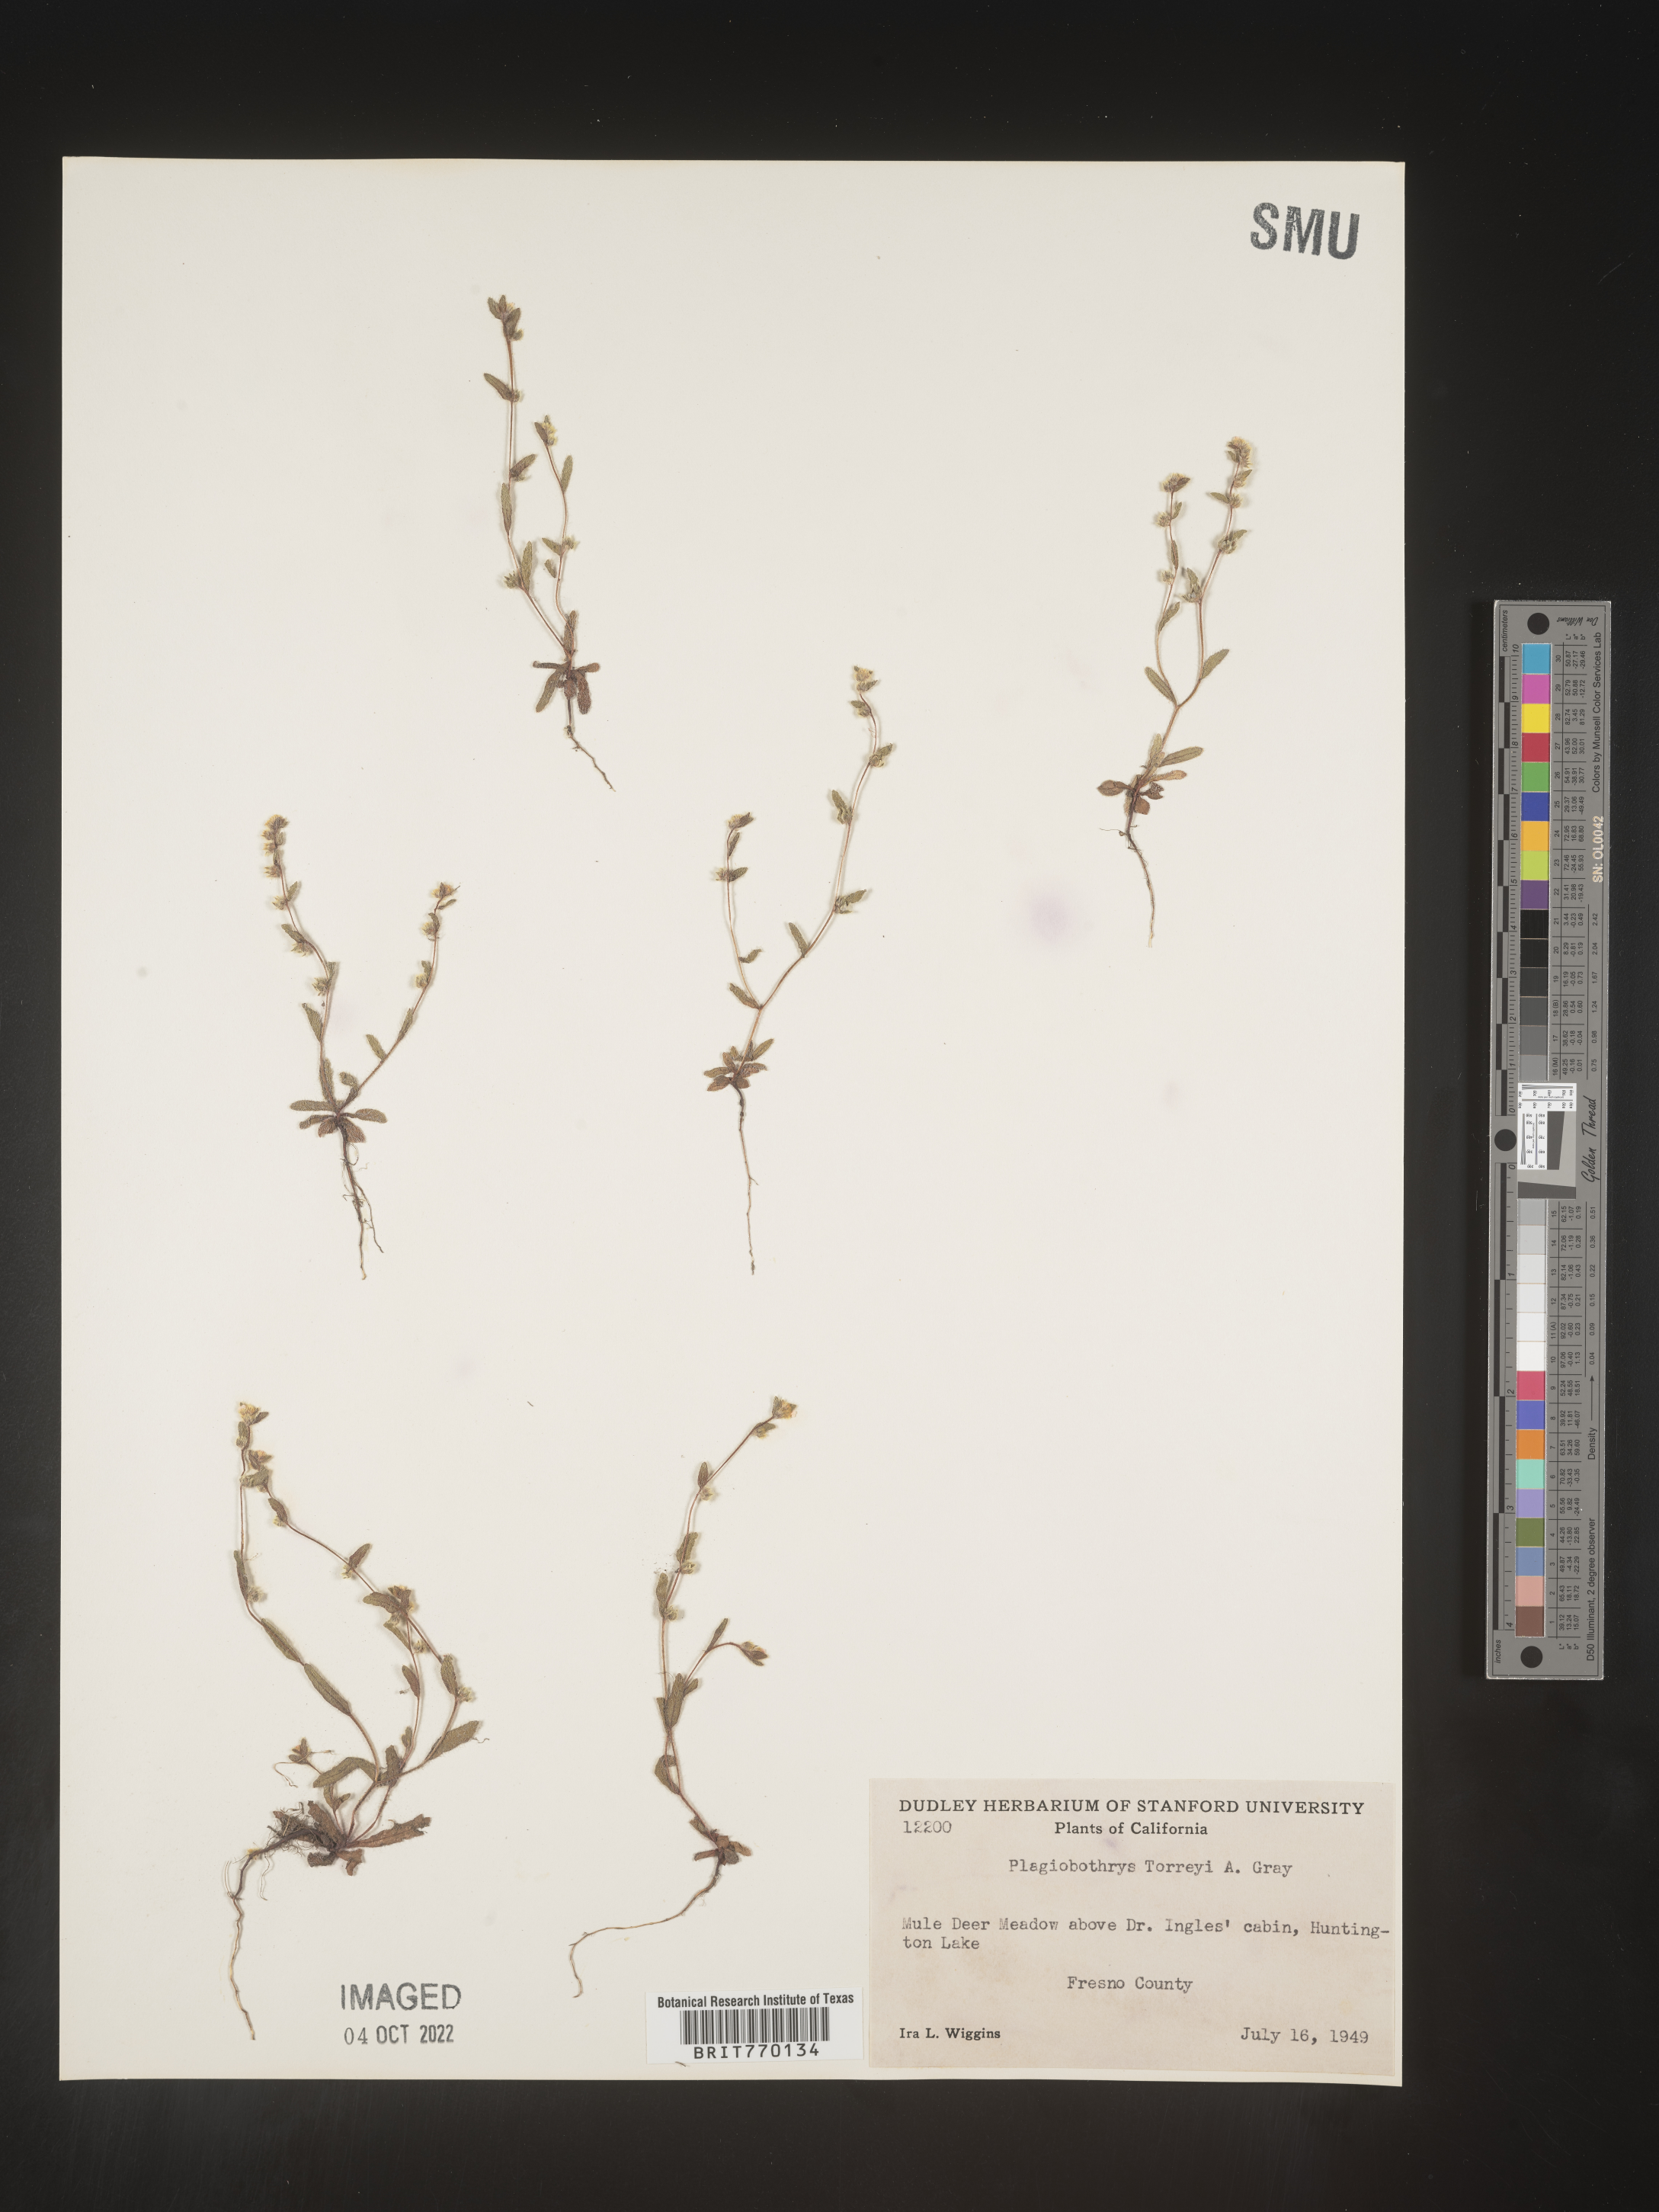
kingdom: Plantae
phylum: Tracheophyta
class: Magnoliopsida
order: Boraginales
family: Boraginaceae
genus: Plagiobothrys
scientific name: Plagiobothrys
